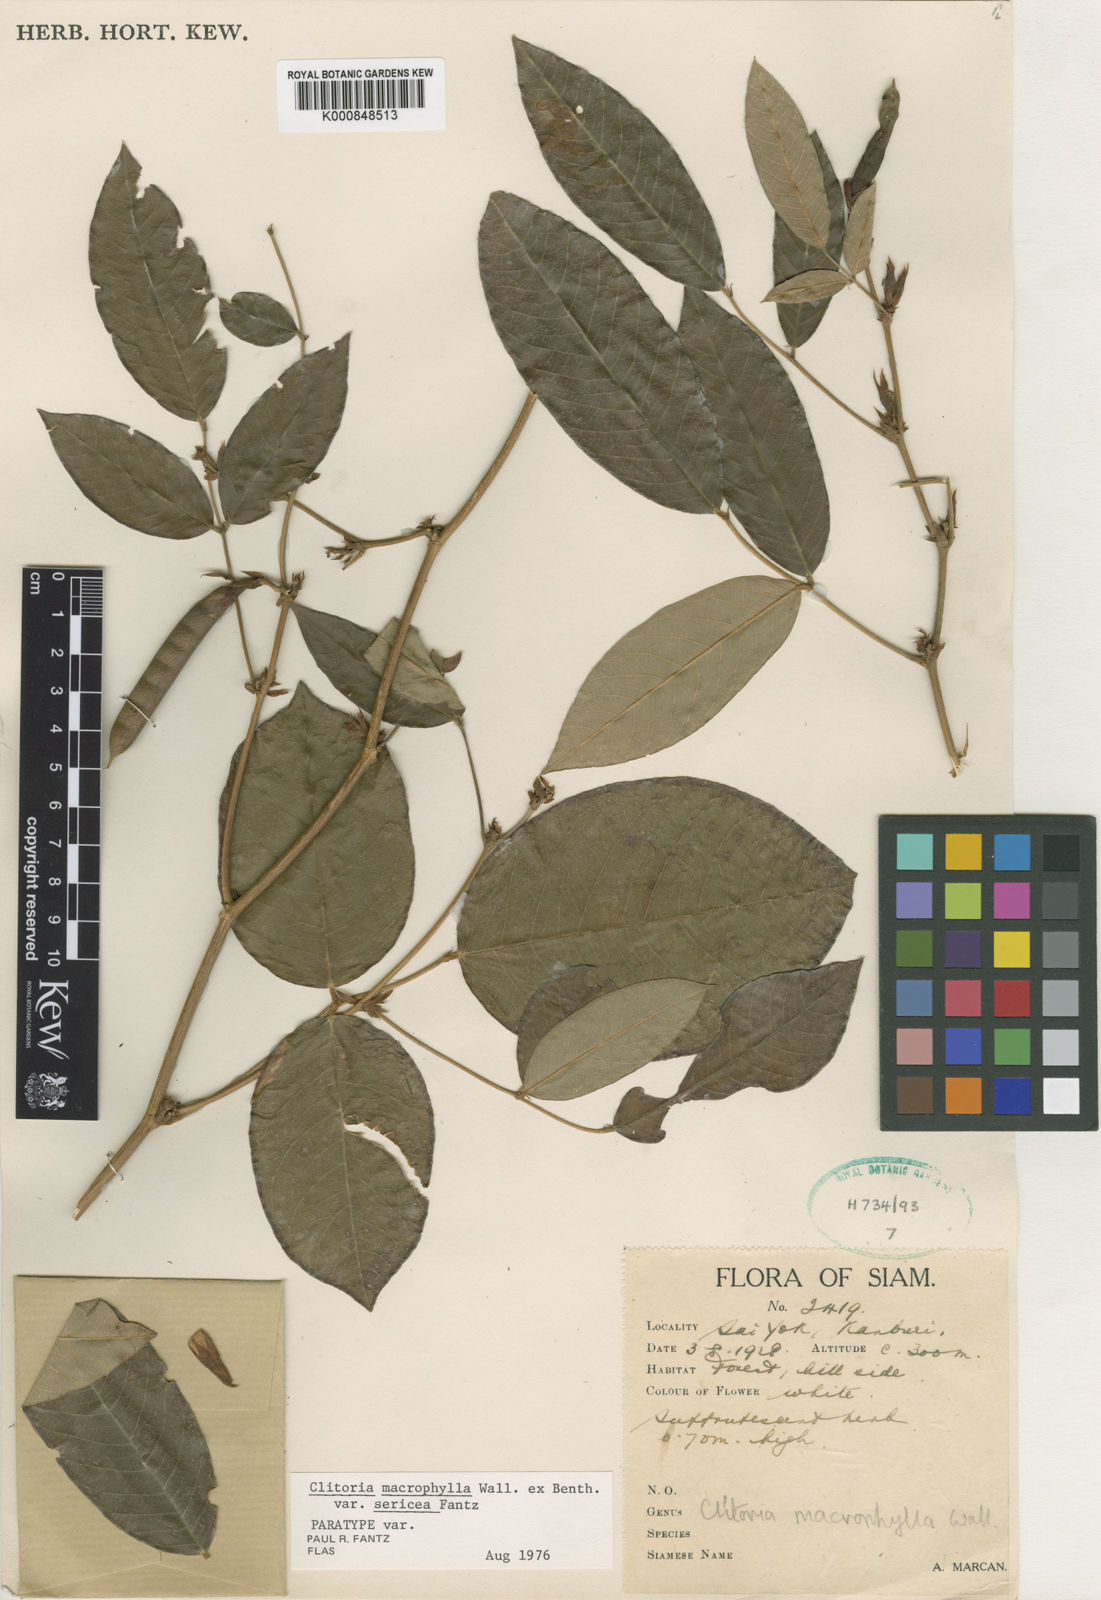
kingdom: Plantae
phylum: Tracheophyta
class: Magnoliopsida
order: Fabales
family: Fabaceae
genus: Clitoria
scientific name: Clitoria macrophylla
